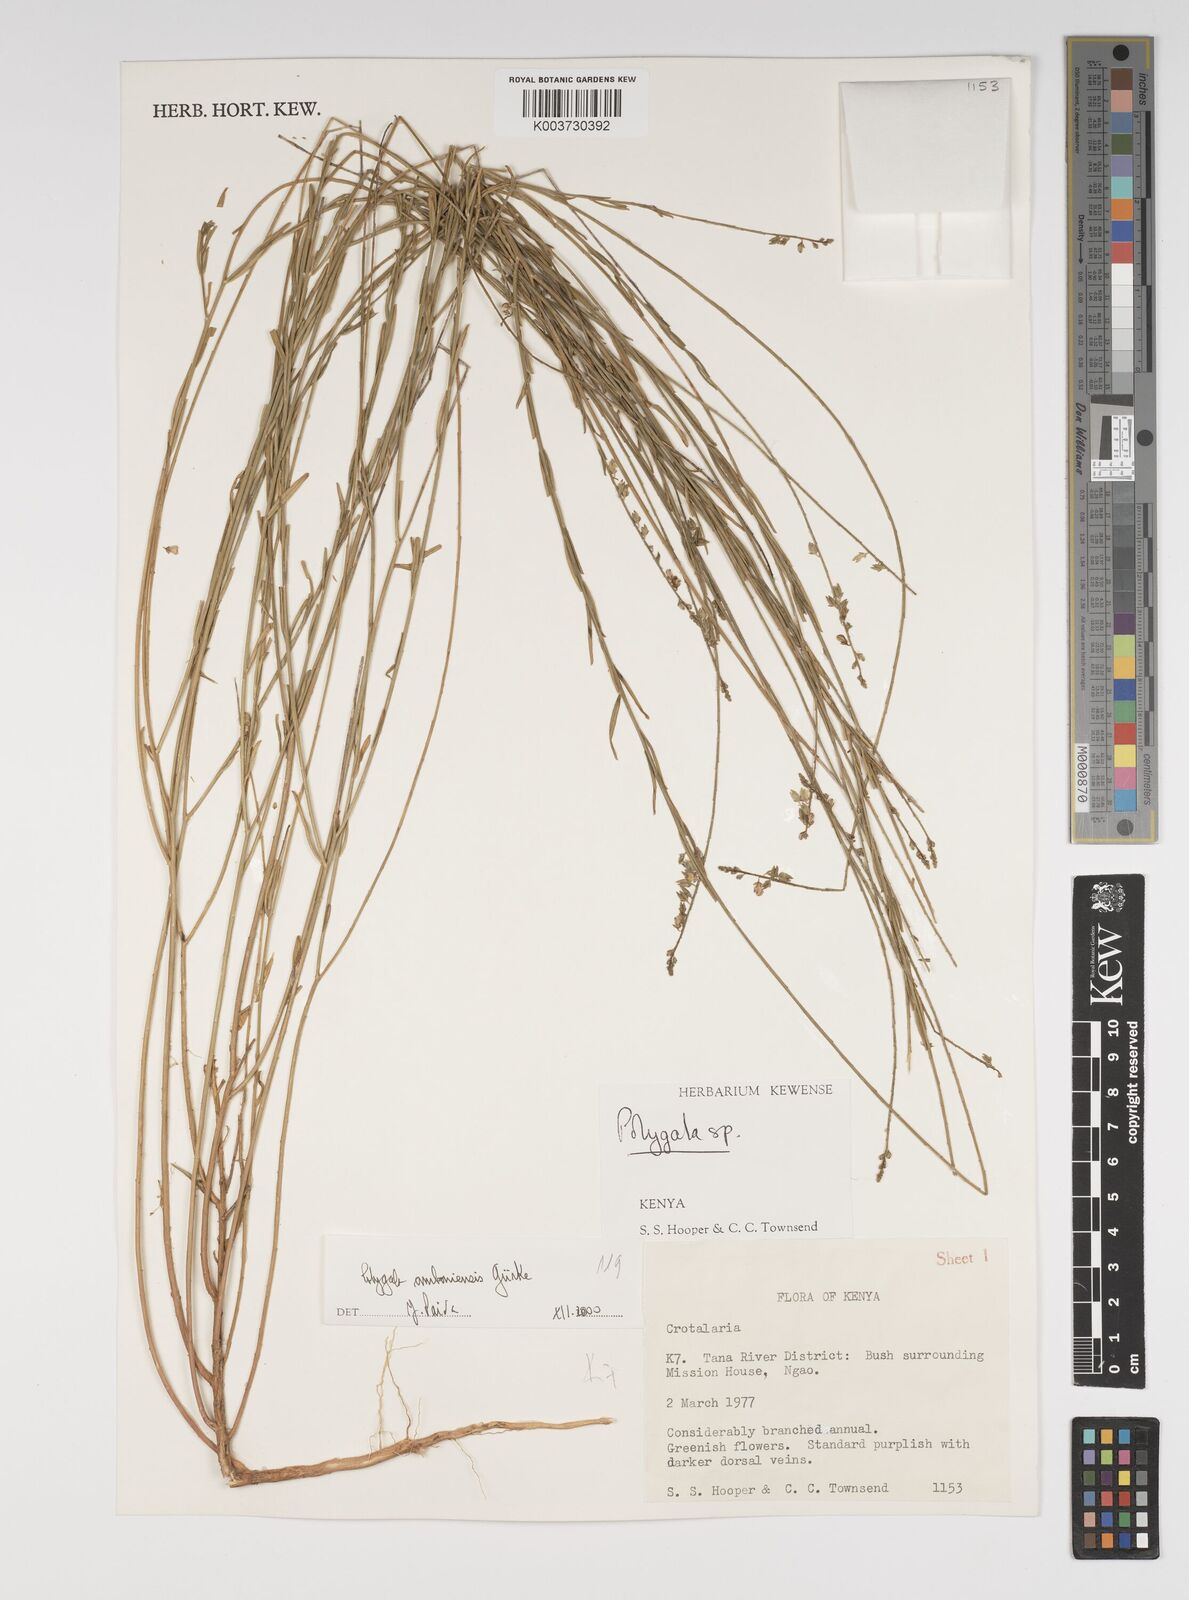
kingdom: Plantae
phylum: Tracheophyta
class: Magnoliopsida
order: Fabales
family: Polygalaceae
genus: Polygala
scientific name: Polygala amboniensis
